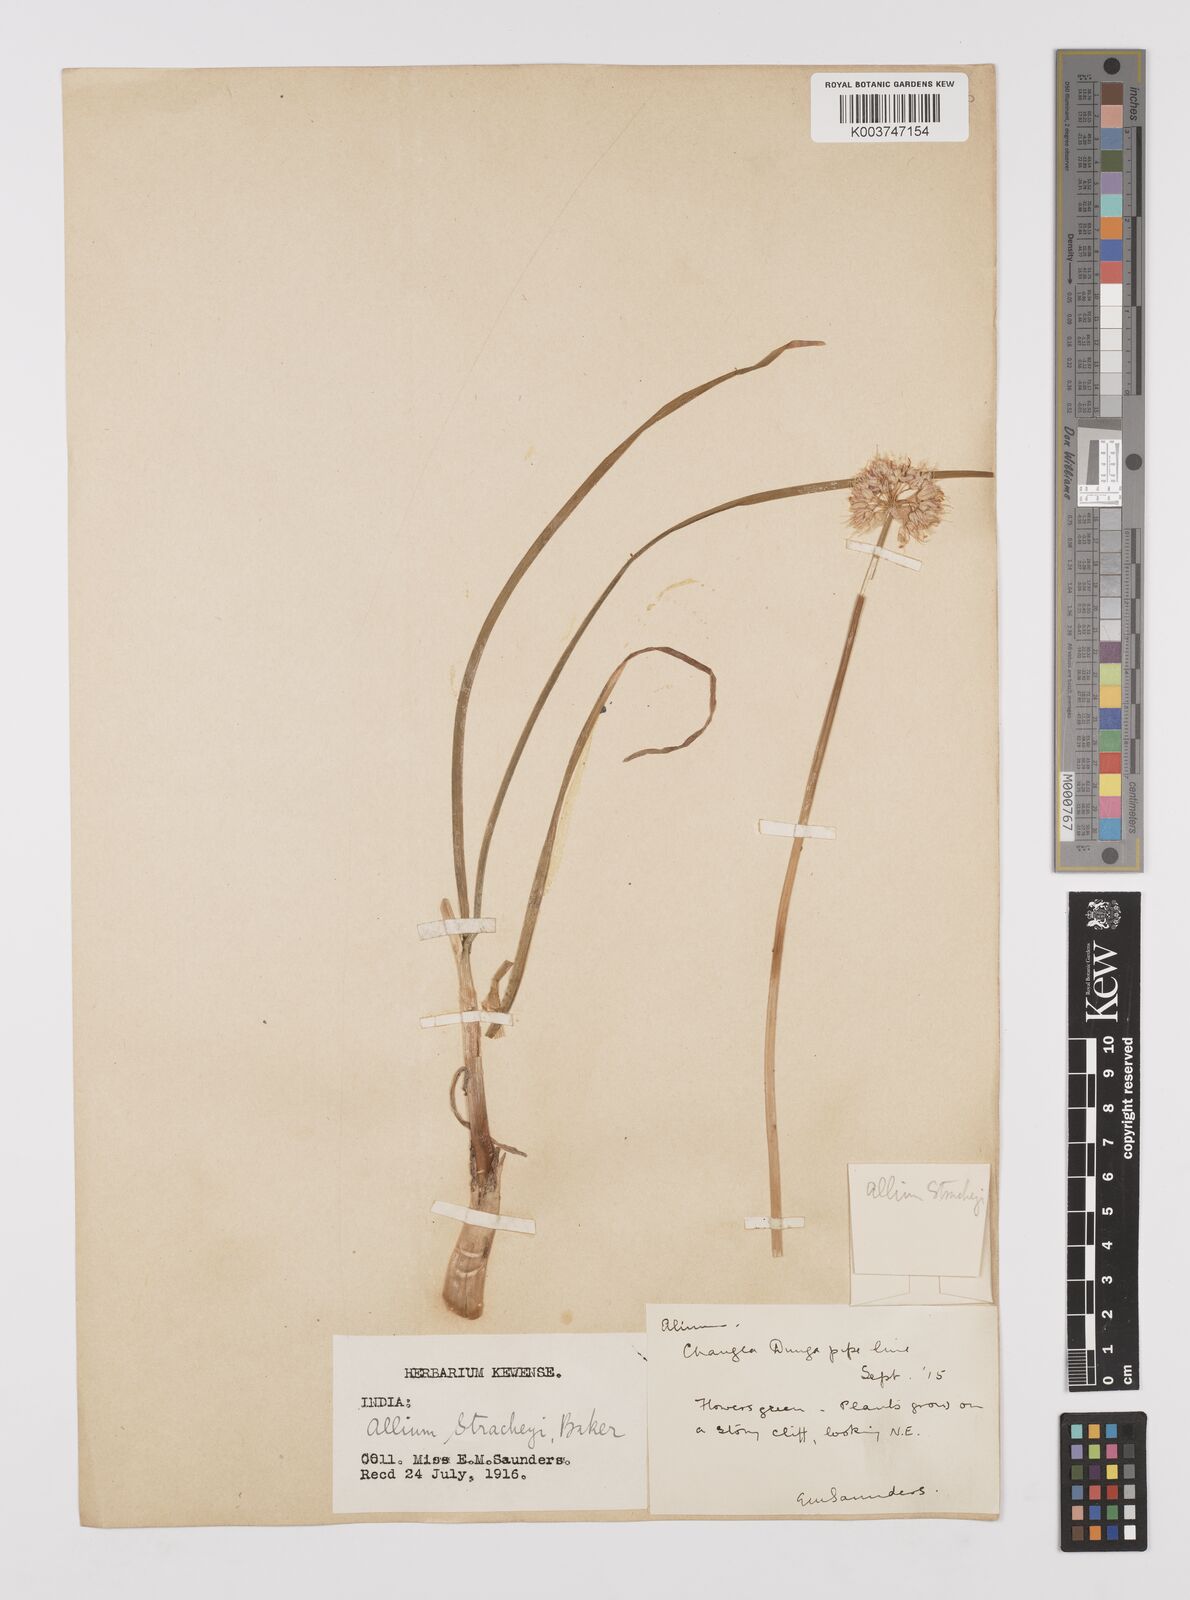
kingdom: Plantae
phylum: Tracheophyta
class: Liliopsida
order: Asparagales
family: Amaryllidaceae
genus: Allium
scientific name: Allium stracheyi
